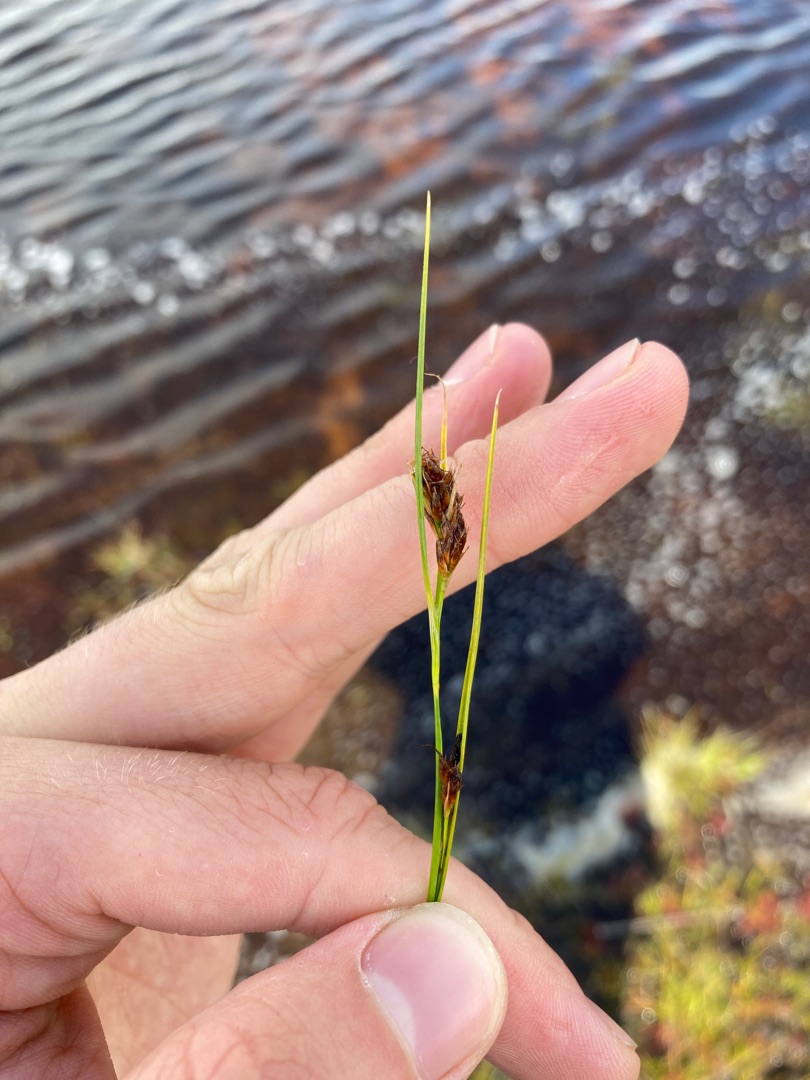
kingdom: Plantae
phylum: Tracheophyta
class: Liliopsida
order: Poales
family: Cyperaceae
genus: Rhynchospora
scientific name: Rhynchospora fusca
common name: Brun næbfrø
